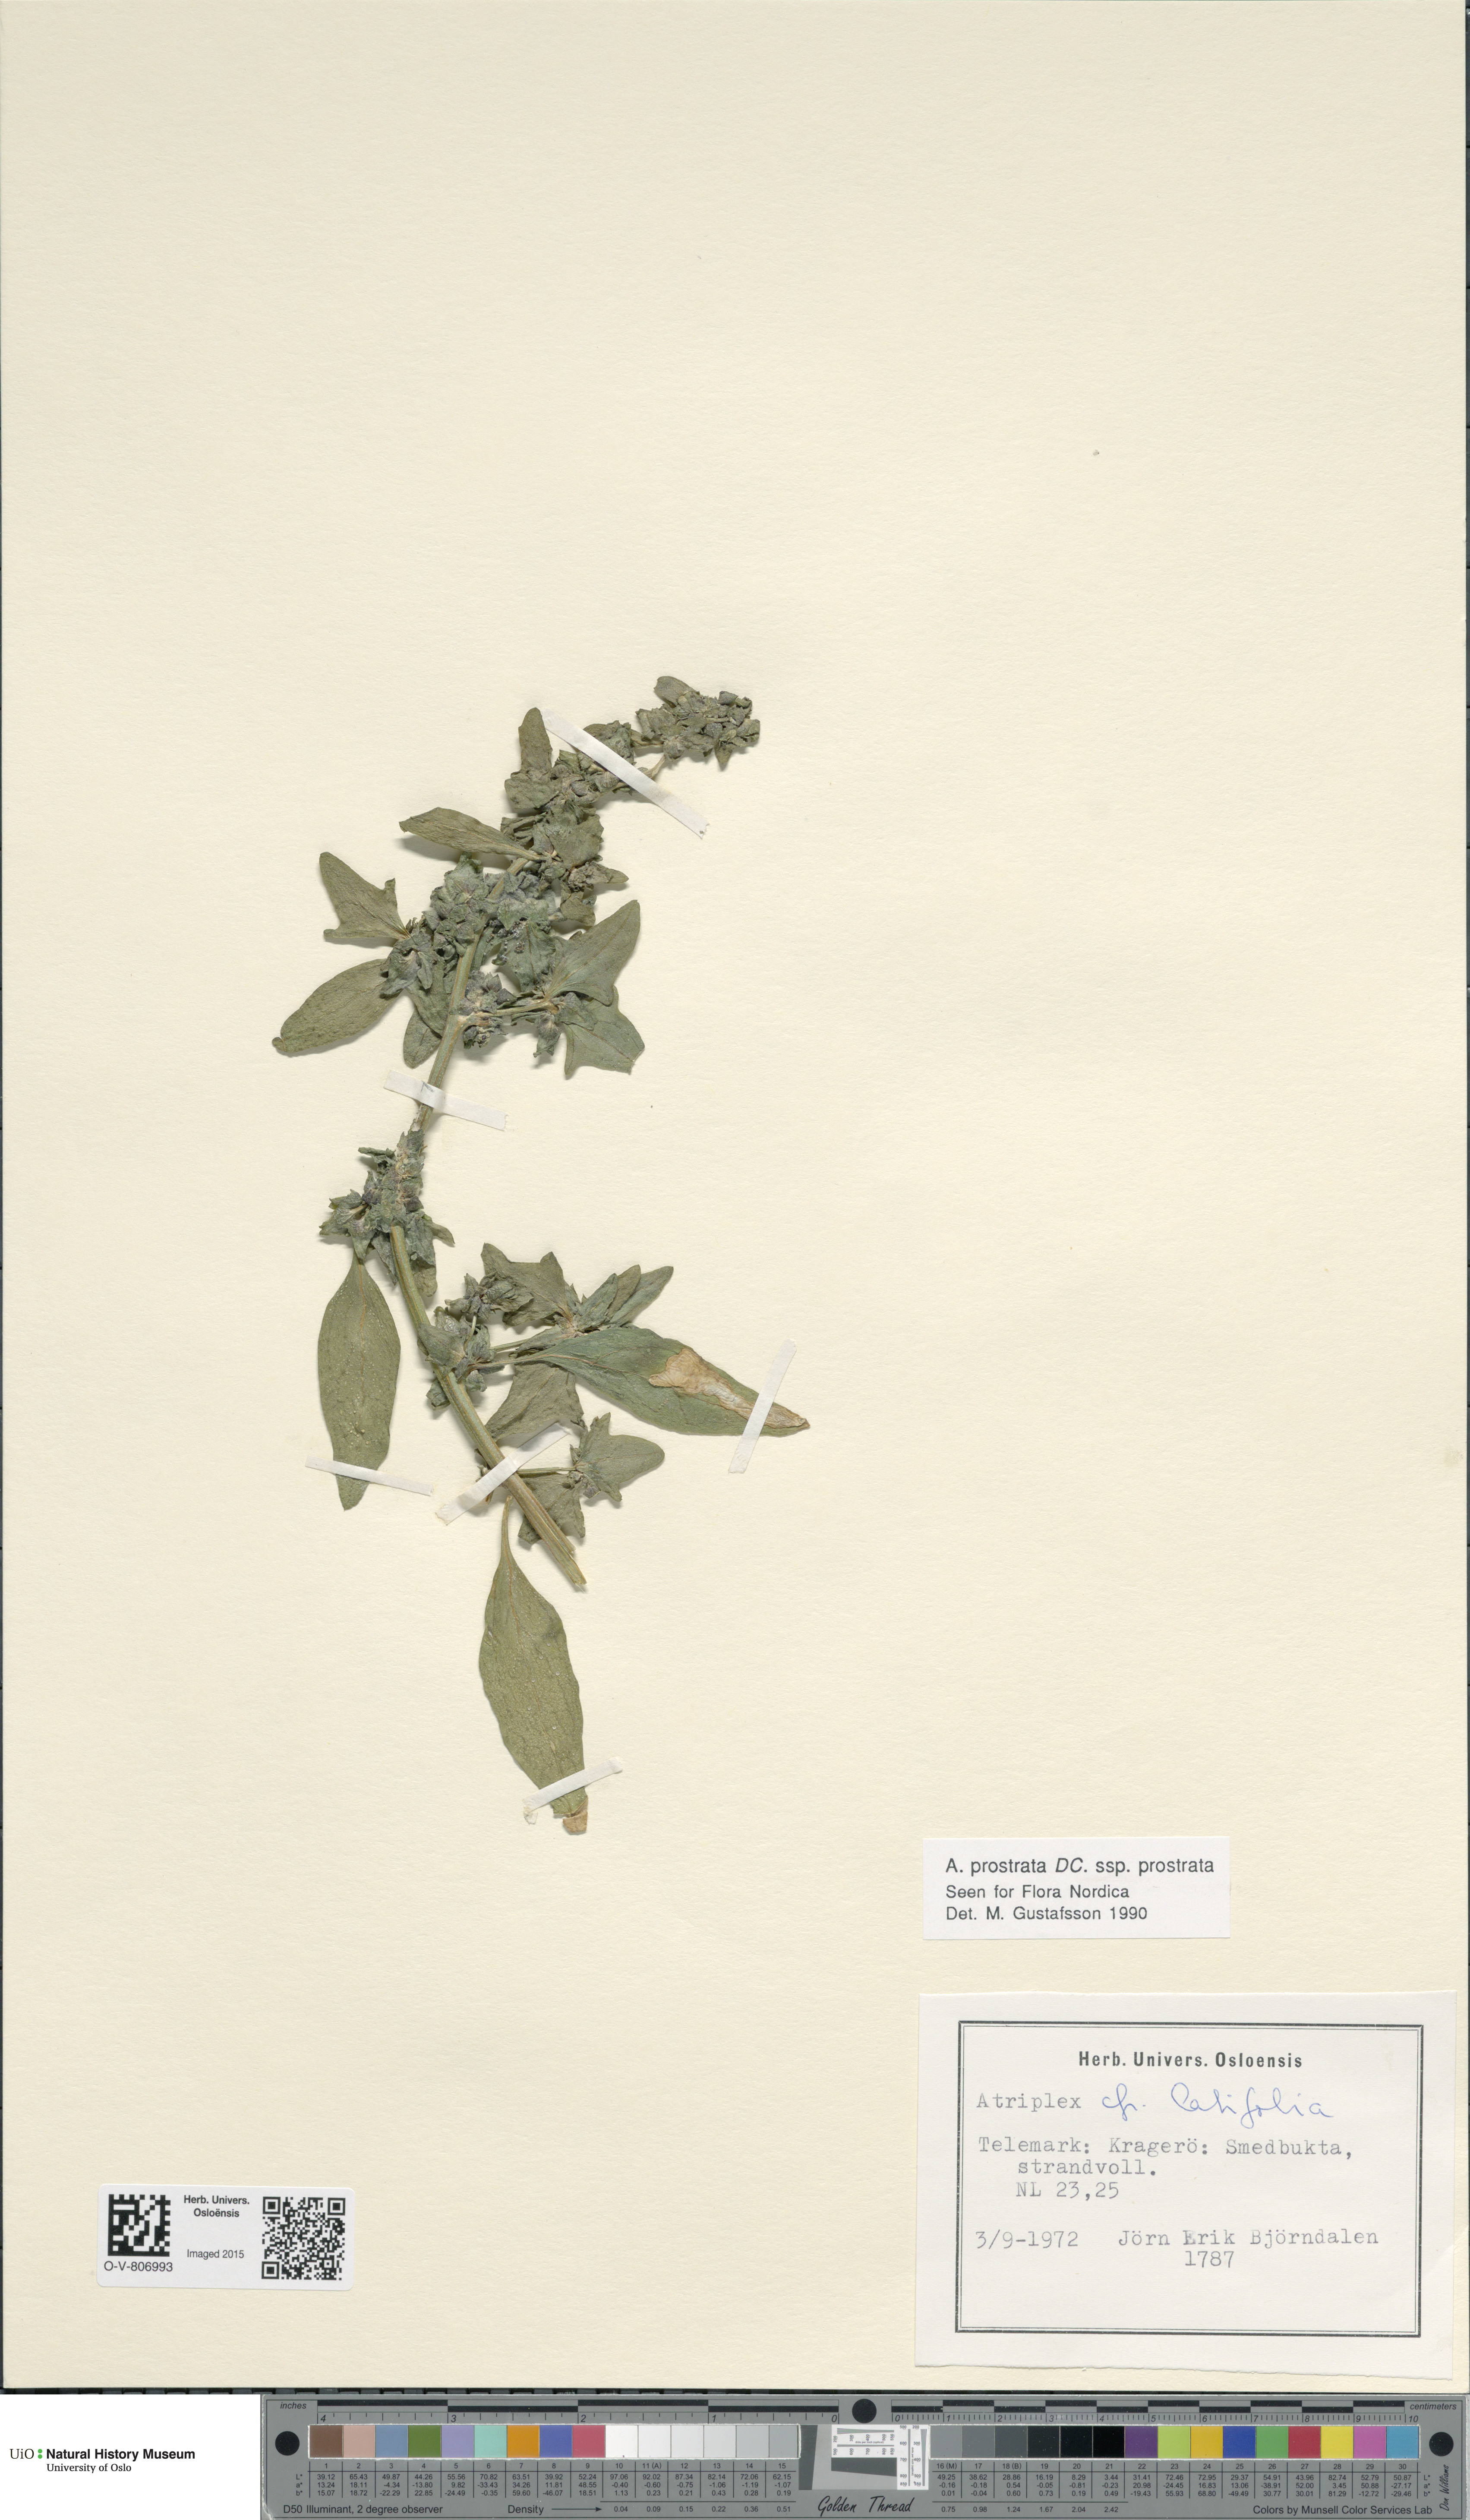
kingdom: Plantae
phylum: Tracheophyta
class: Magnoliopsida
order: Caryophyllales
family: Amaranthaceae
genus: Atriplex
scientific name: Atriplex prostrata
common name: Spear-leaved orache
